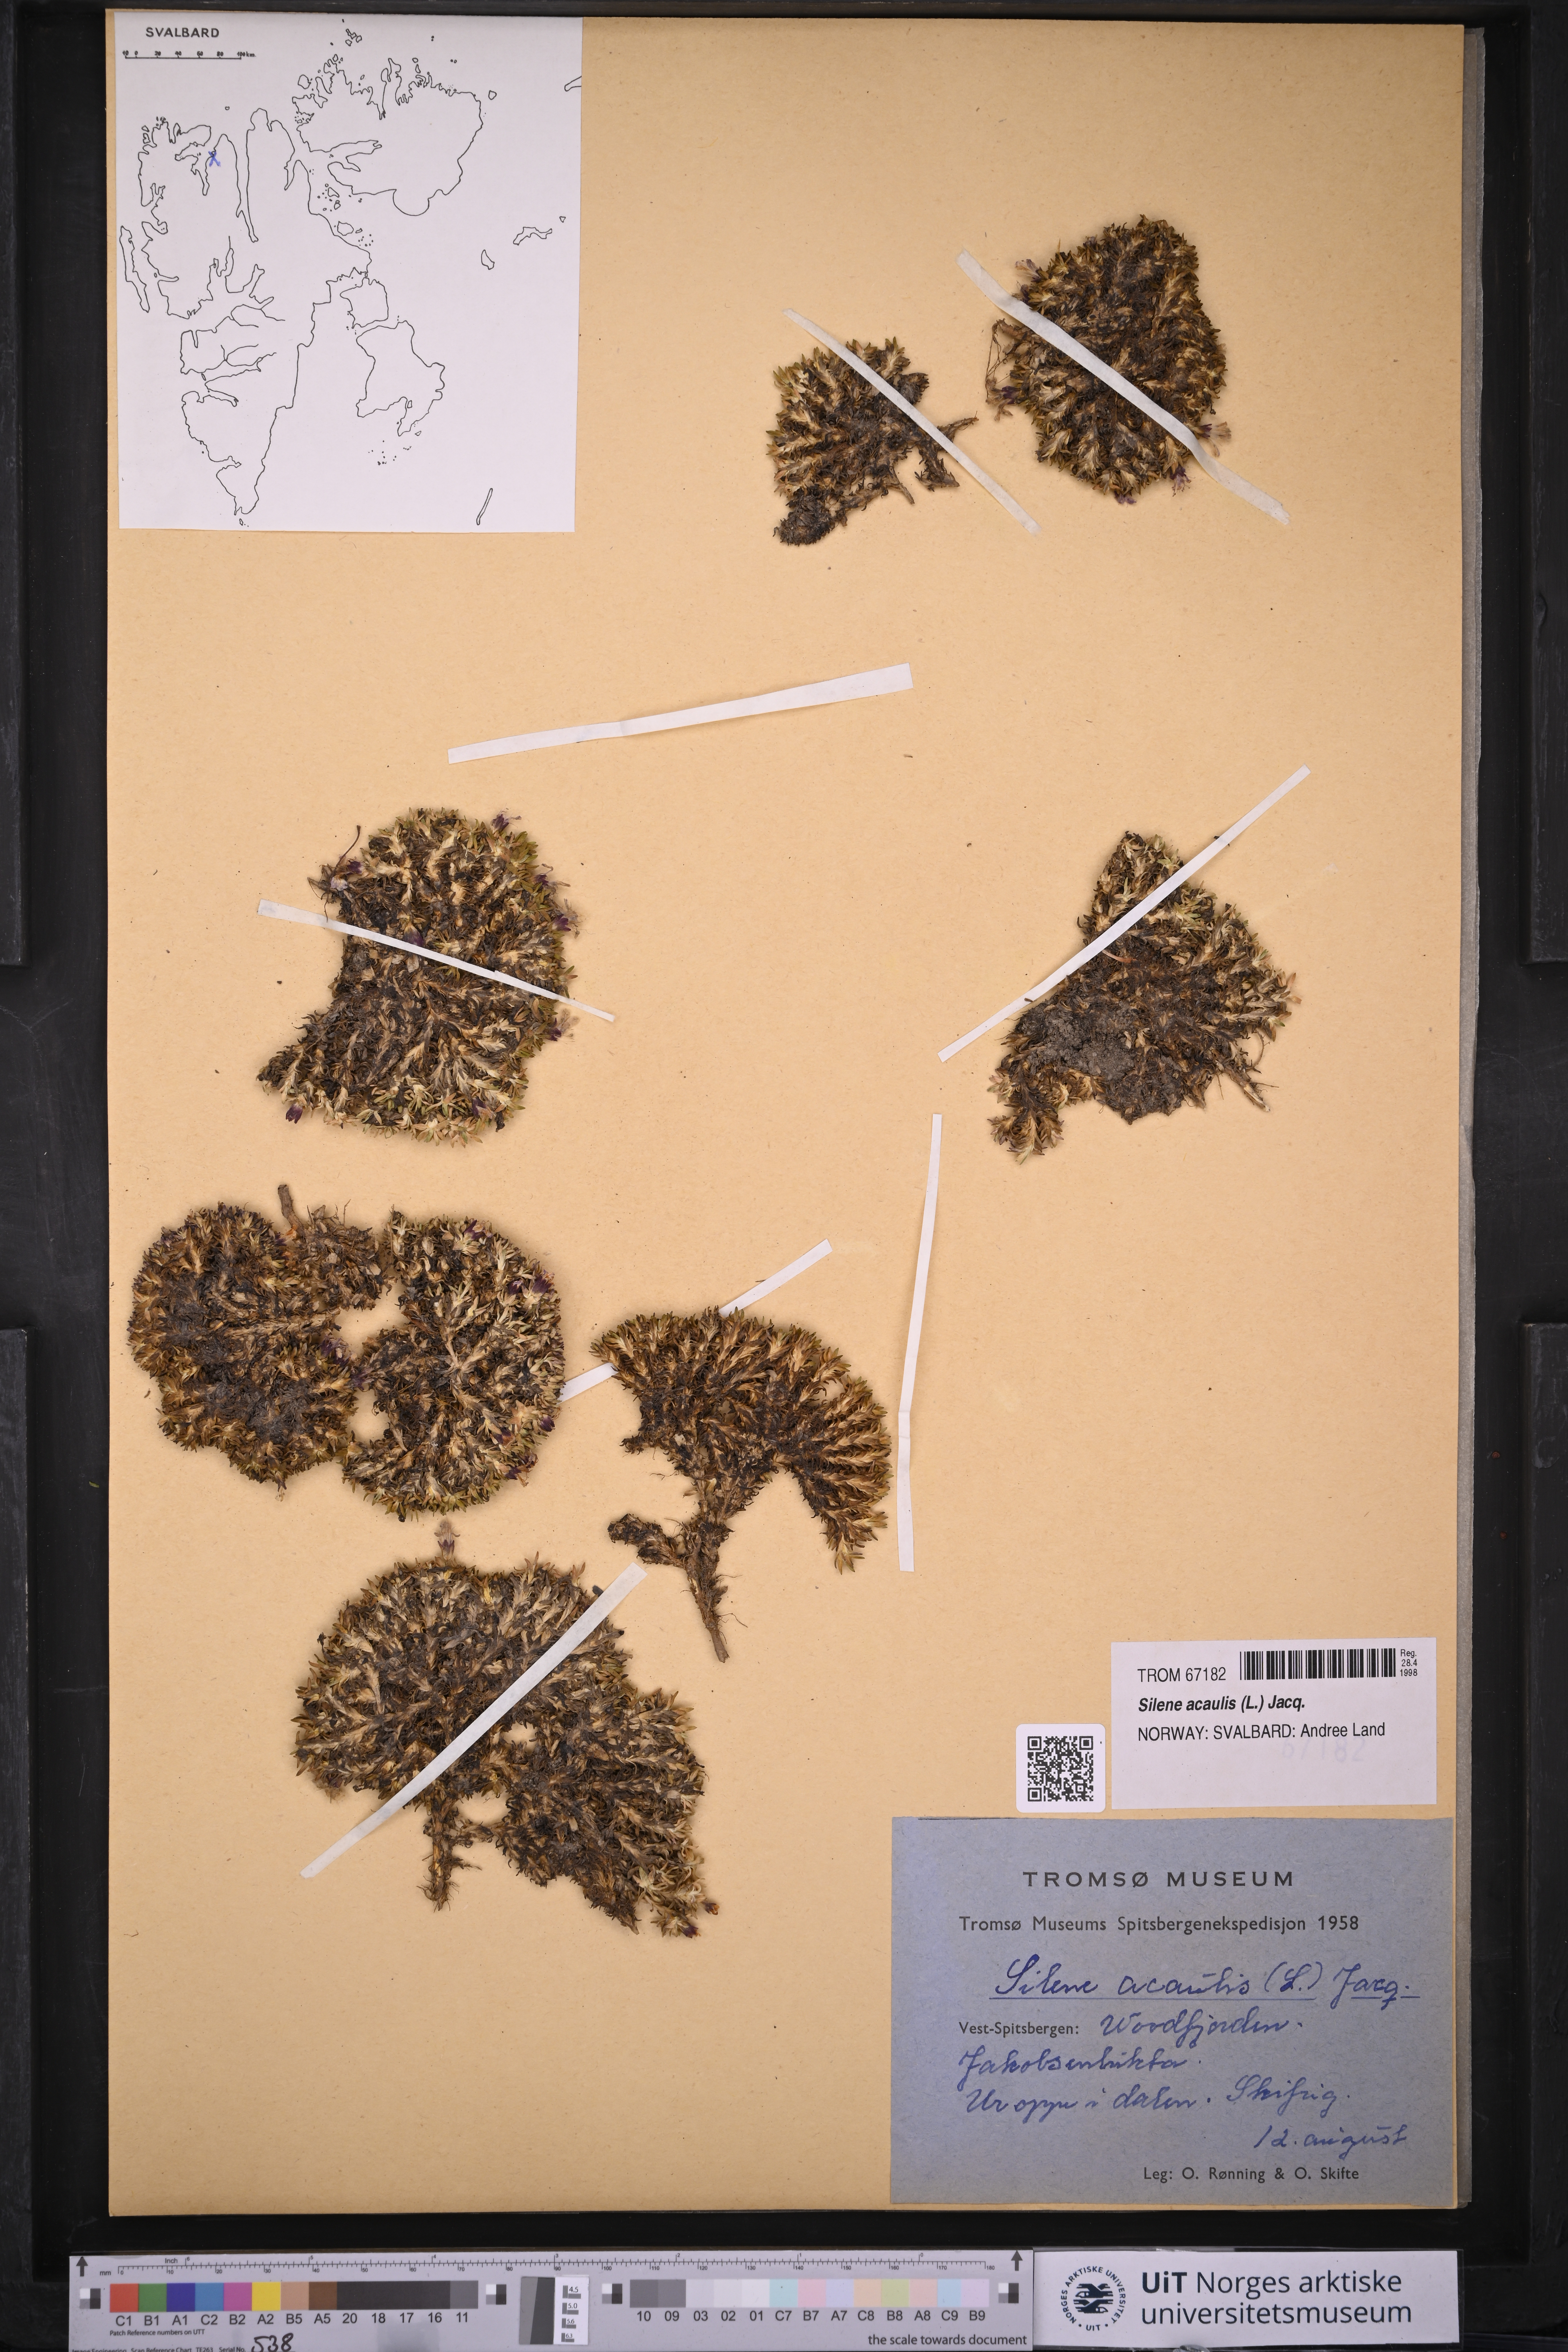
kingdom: Plantae
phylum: Tracheophyta
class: Magnoliopsida
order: Caryophyllales
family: Caryophyllaceae
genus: Silene
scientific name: Silene acaulis
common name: Moss campion
